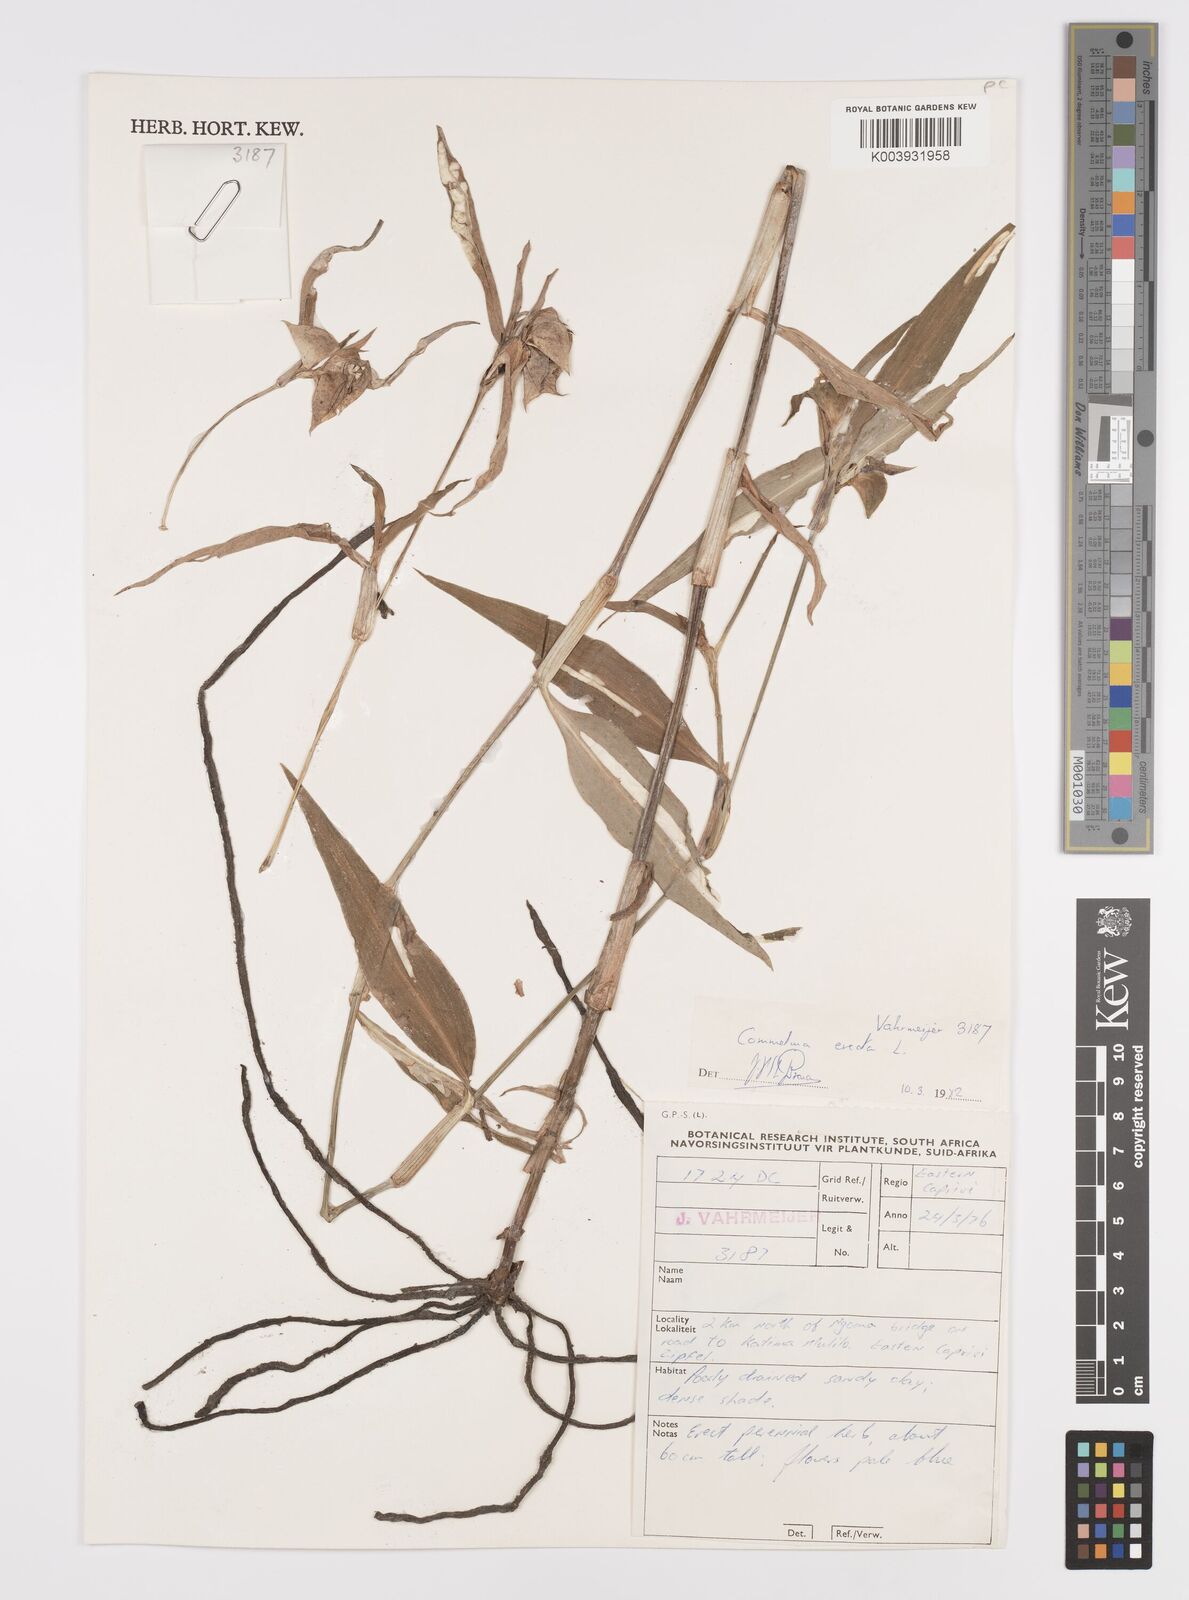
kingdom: Plantae
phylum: Tracheophyta
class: Liliopsida
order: Commelinales
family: Commelinaceae
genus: Commelina
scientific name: Commelina erecta
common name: Blousel blommetjie
